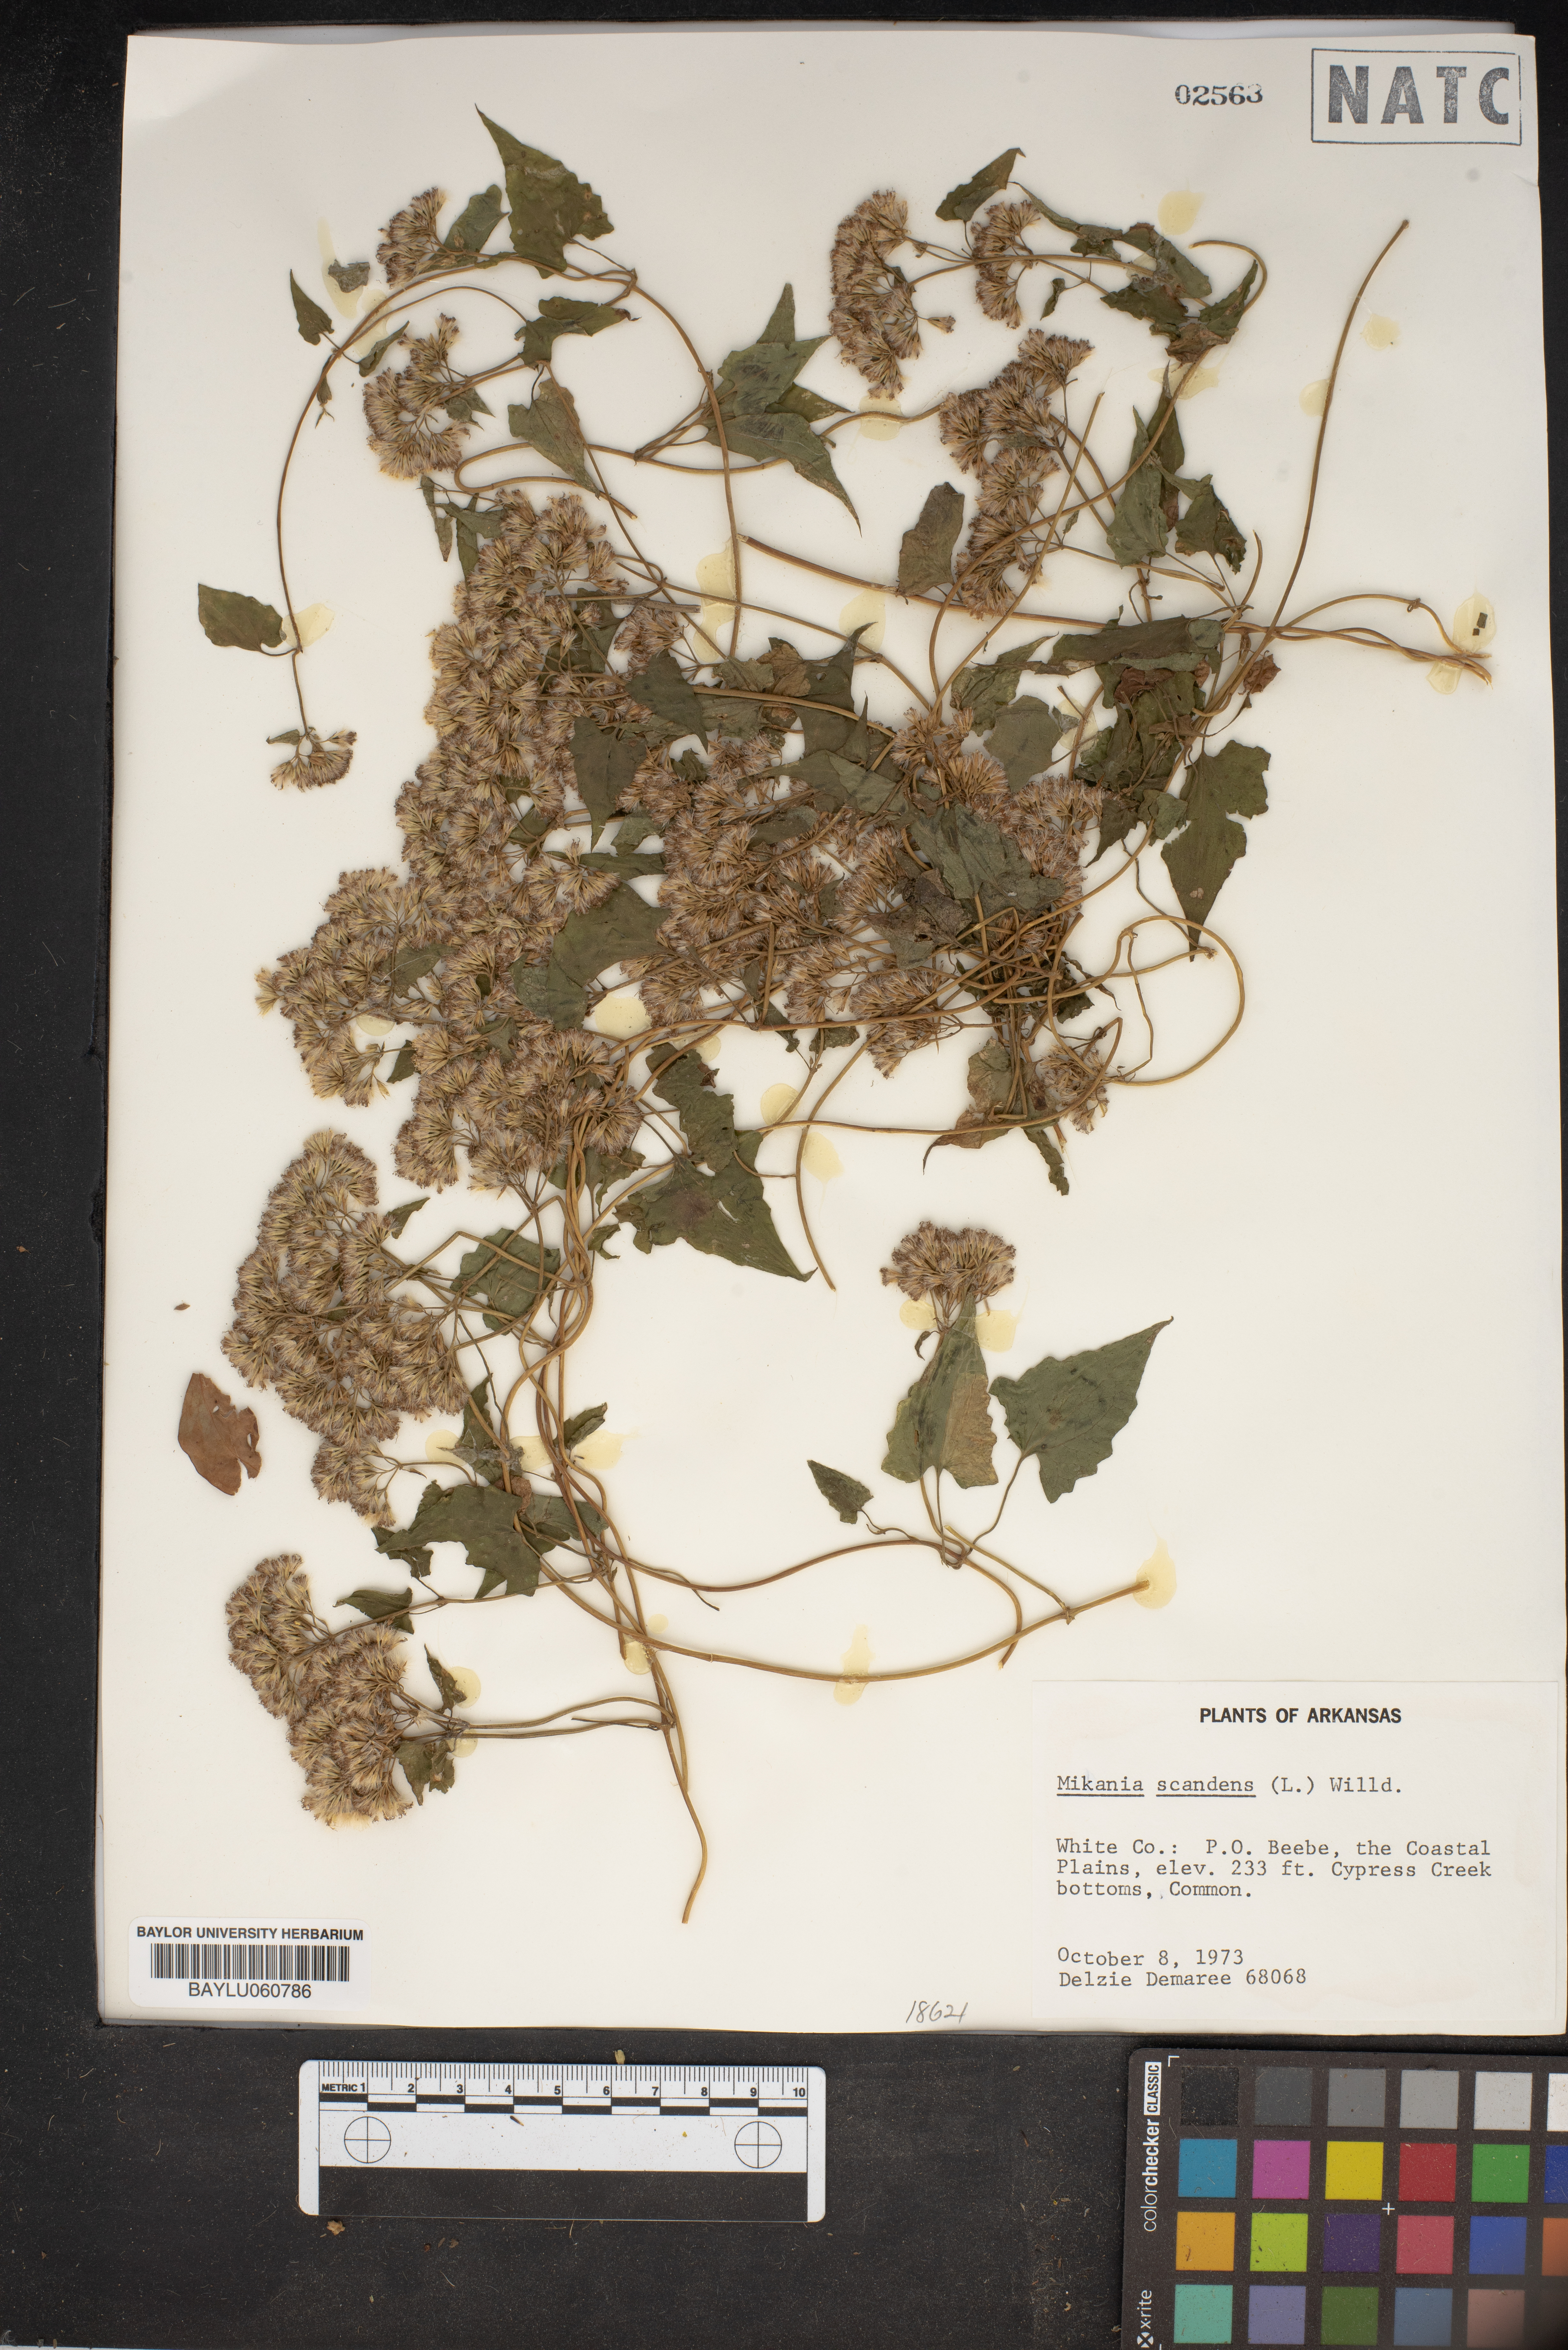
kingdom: Plantae
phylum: Tracheophyta
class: Magnoliopsida
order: Asterales
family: Asteraceae
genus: Mikania
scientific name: Mikania scandens
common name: Climbing hempvine
